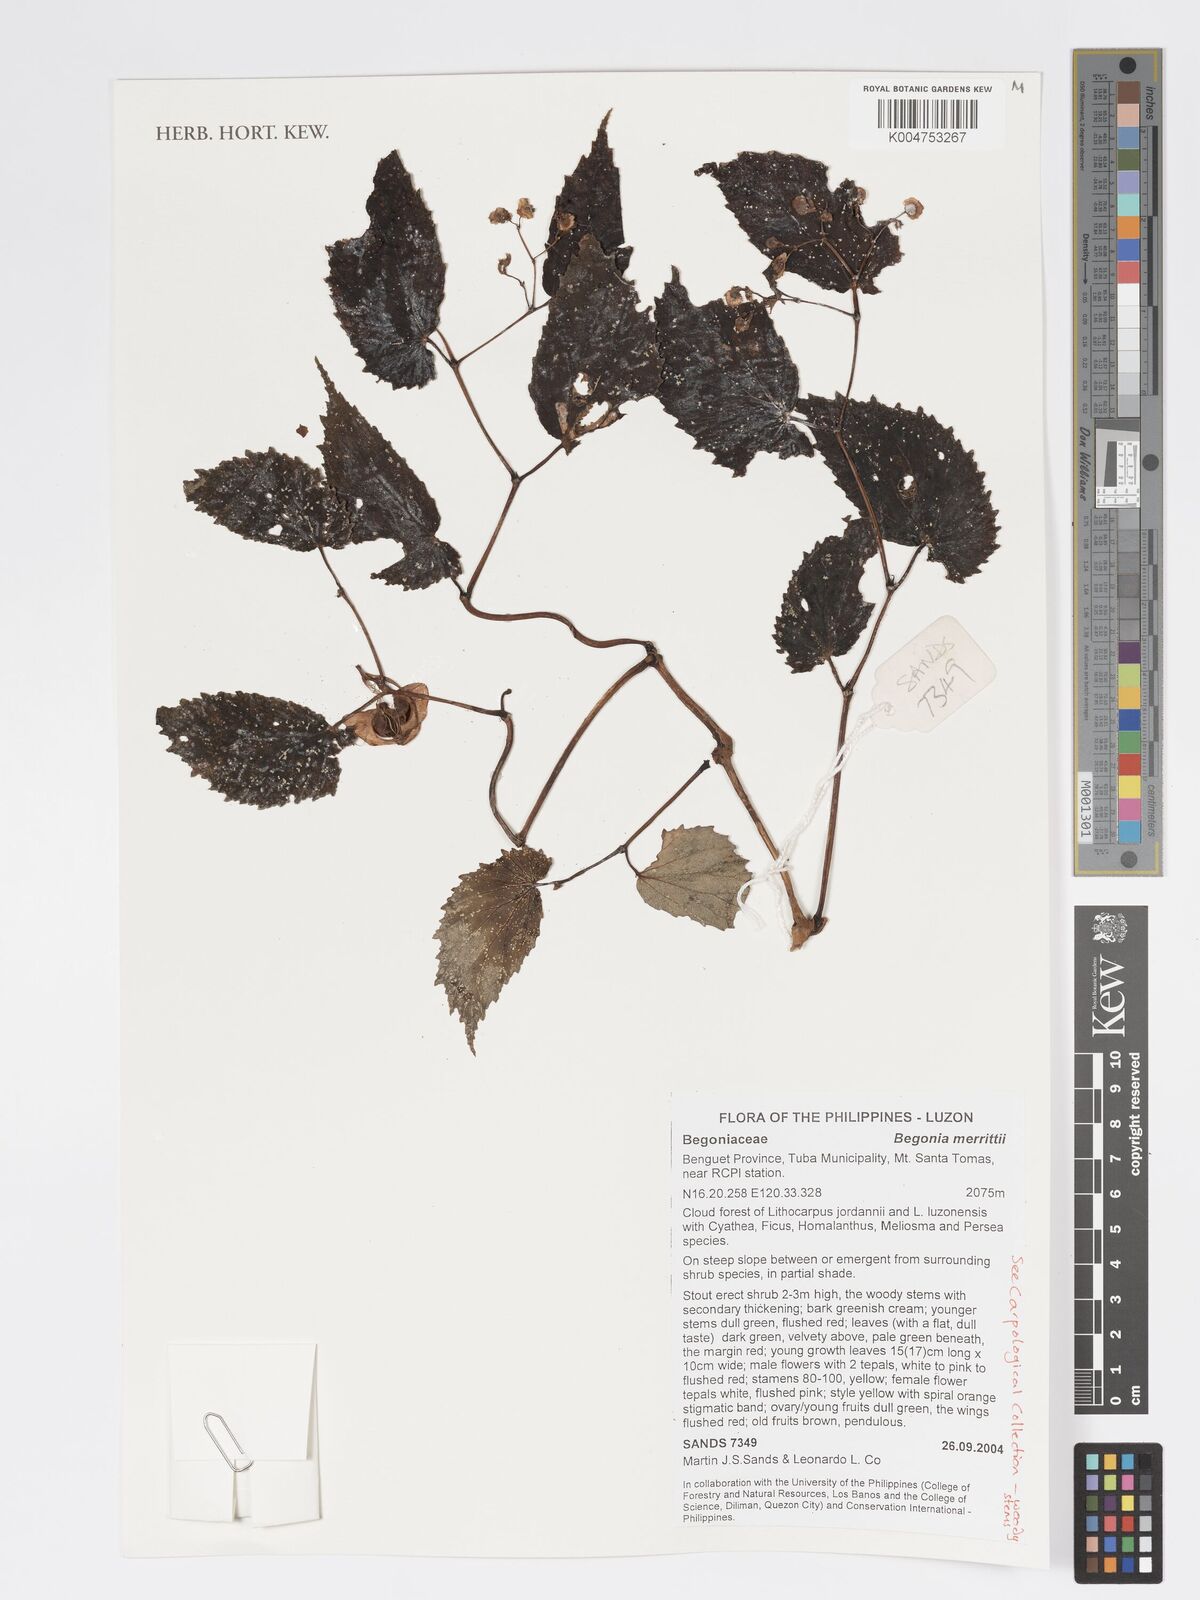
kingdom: Plantae
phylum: Tracheophyta
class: Magnoliopsida
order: Cucurbitales
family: Begoniaceae
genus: Begonia
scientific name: Begonia merrittii
